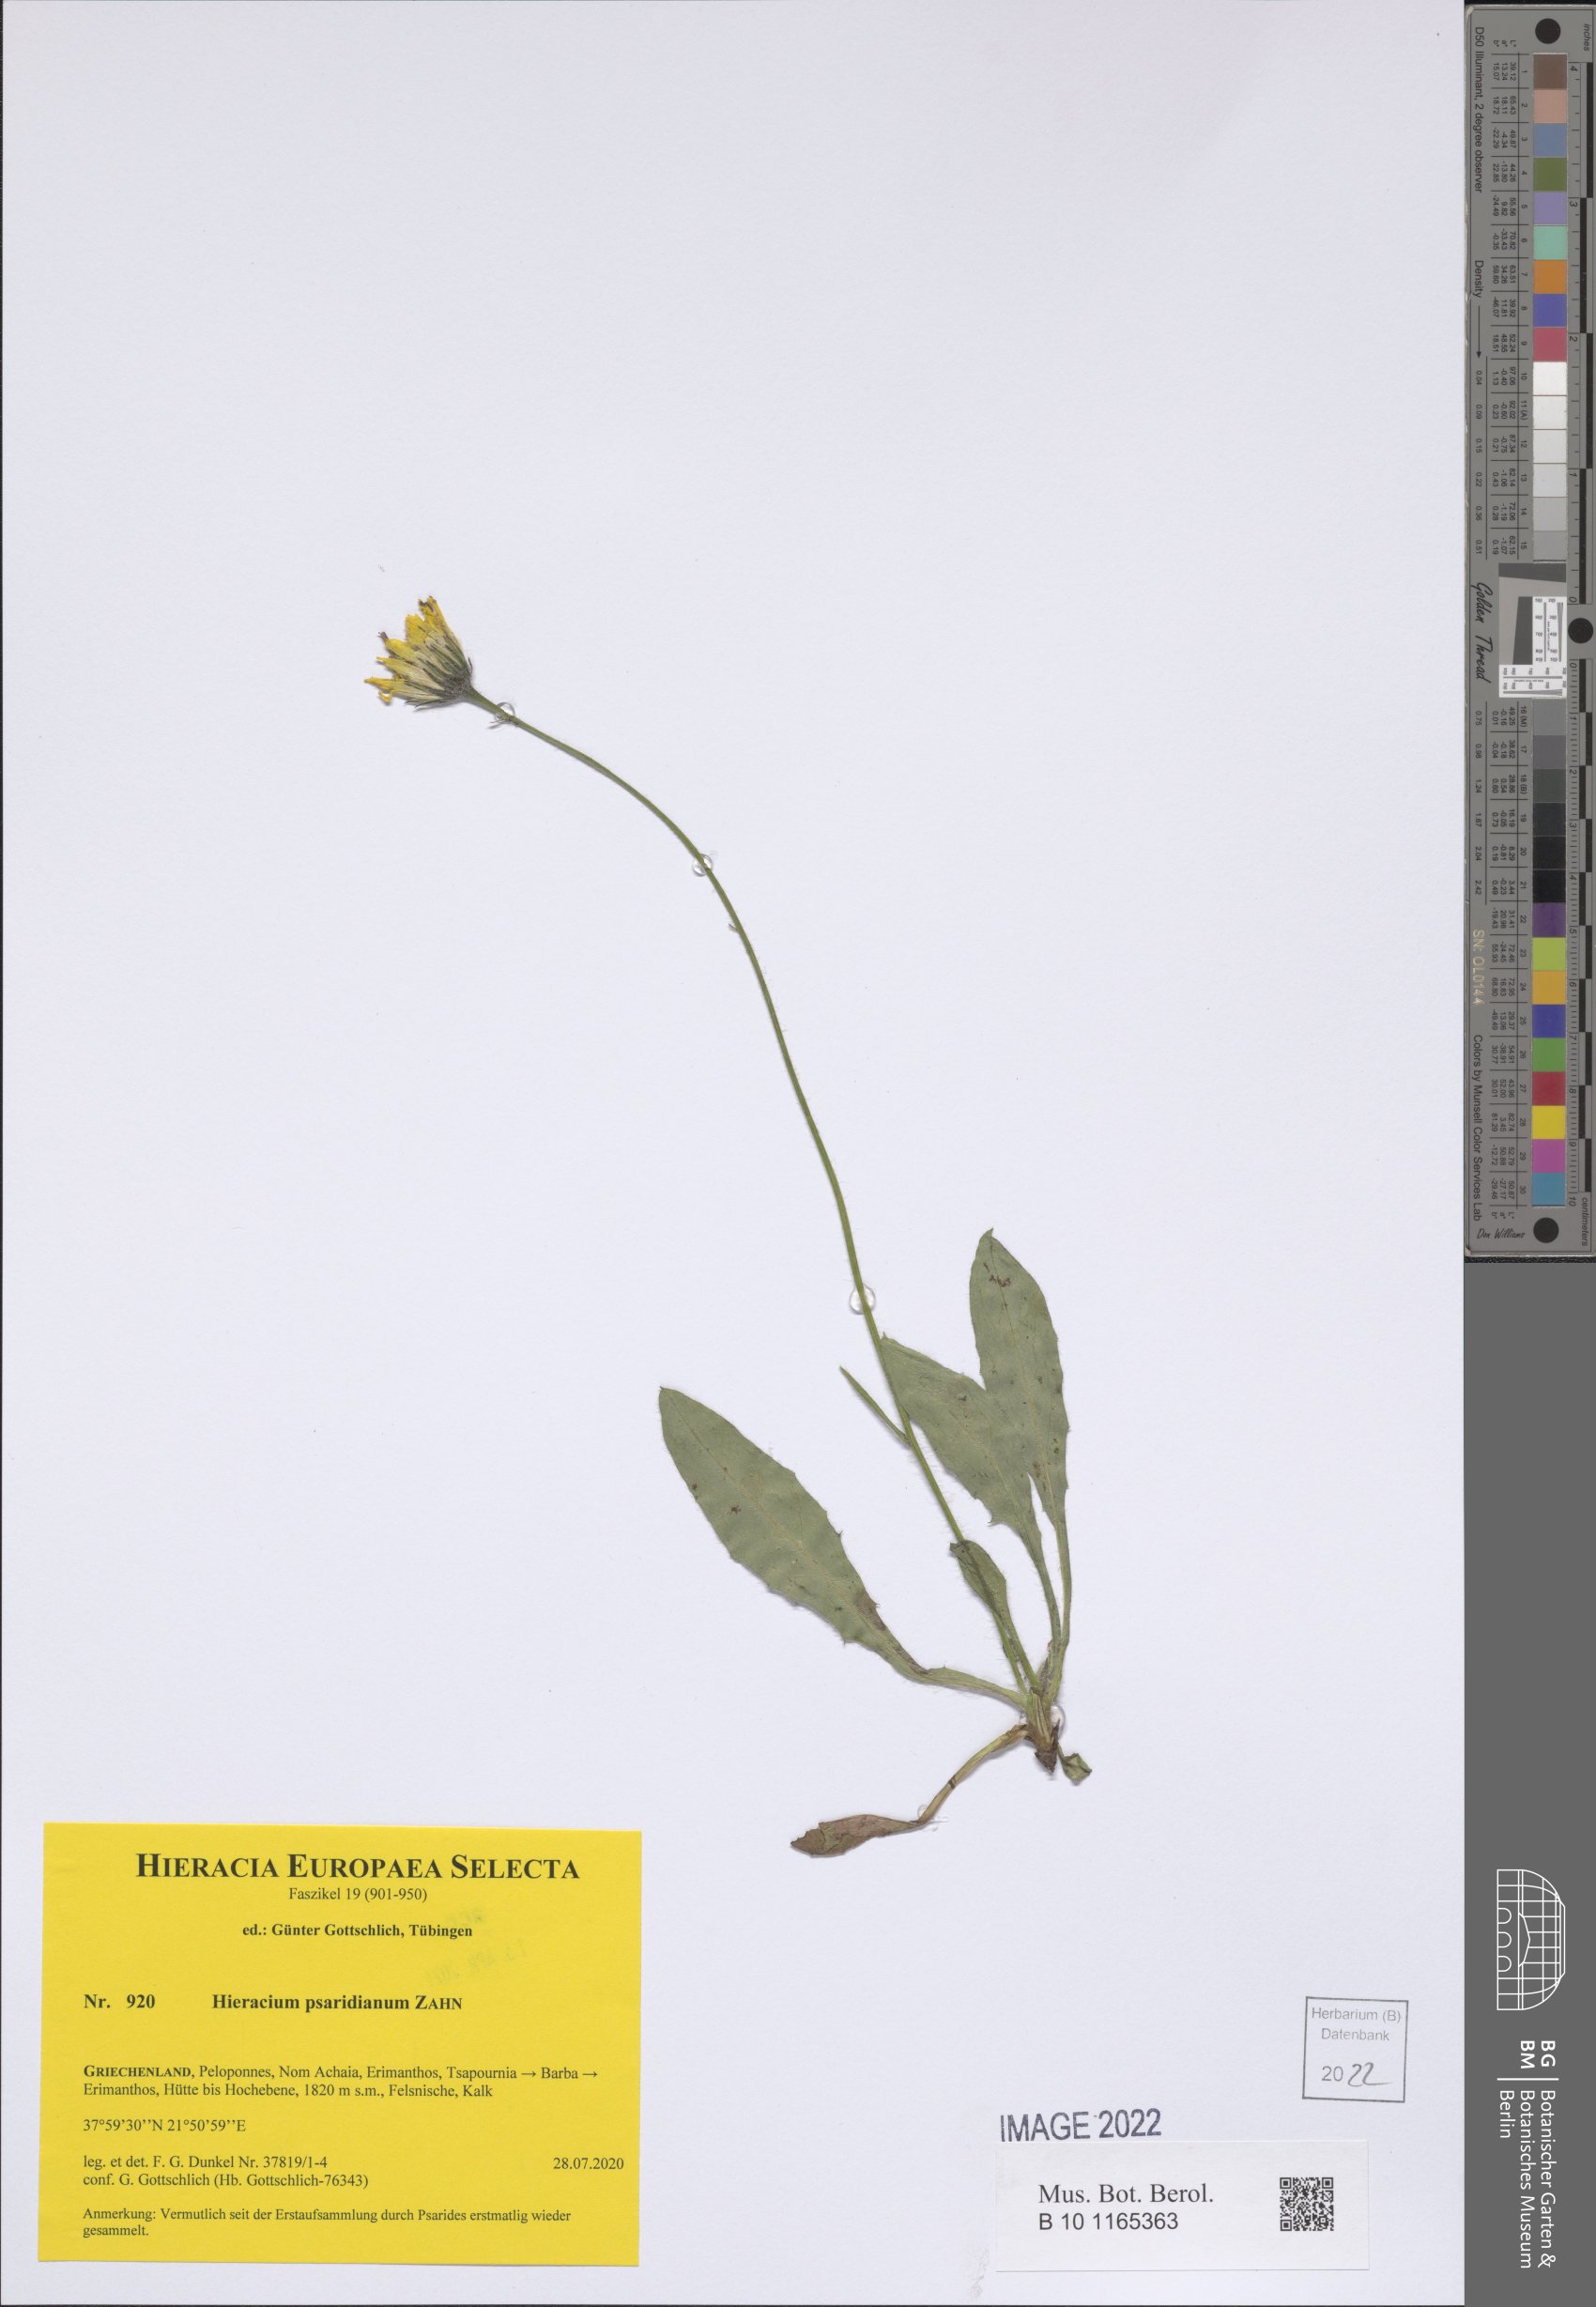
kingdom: Plantae
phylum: Tracheophyta
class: Magnoliopsida
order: Asterales
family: Asteraceae
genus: Hieracium
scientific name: Hieracium psaridianum
